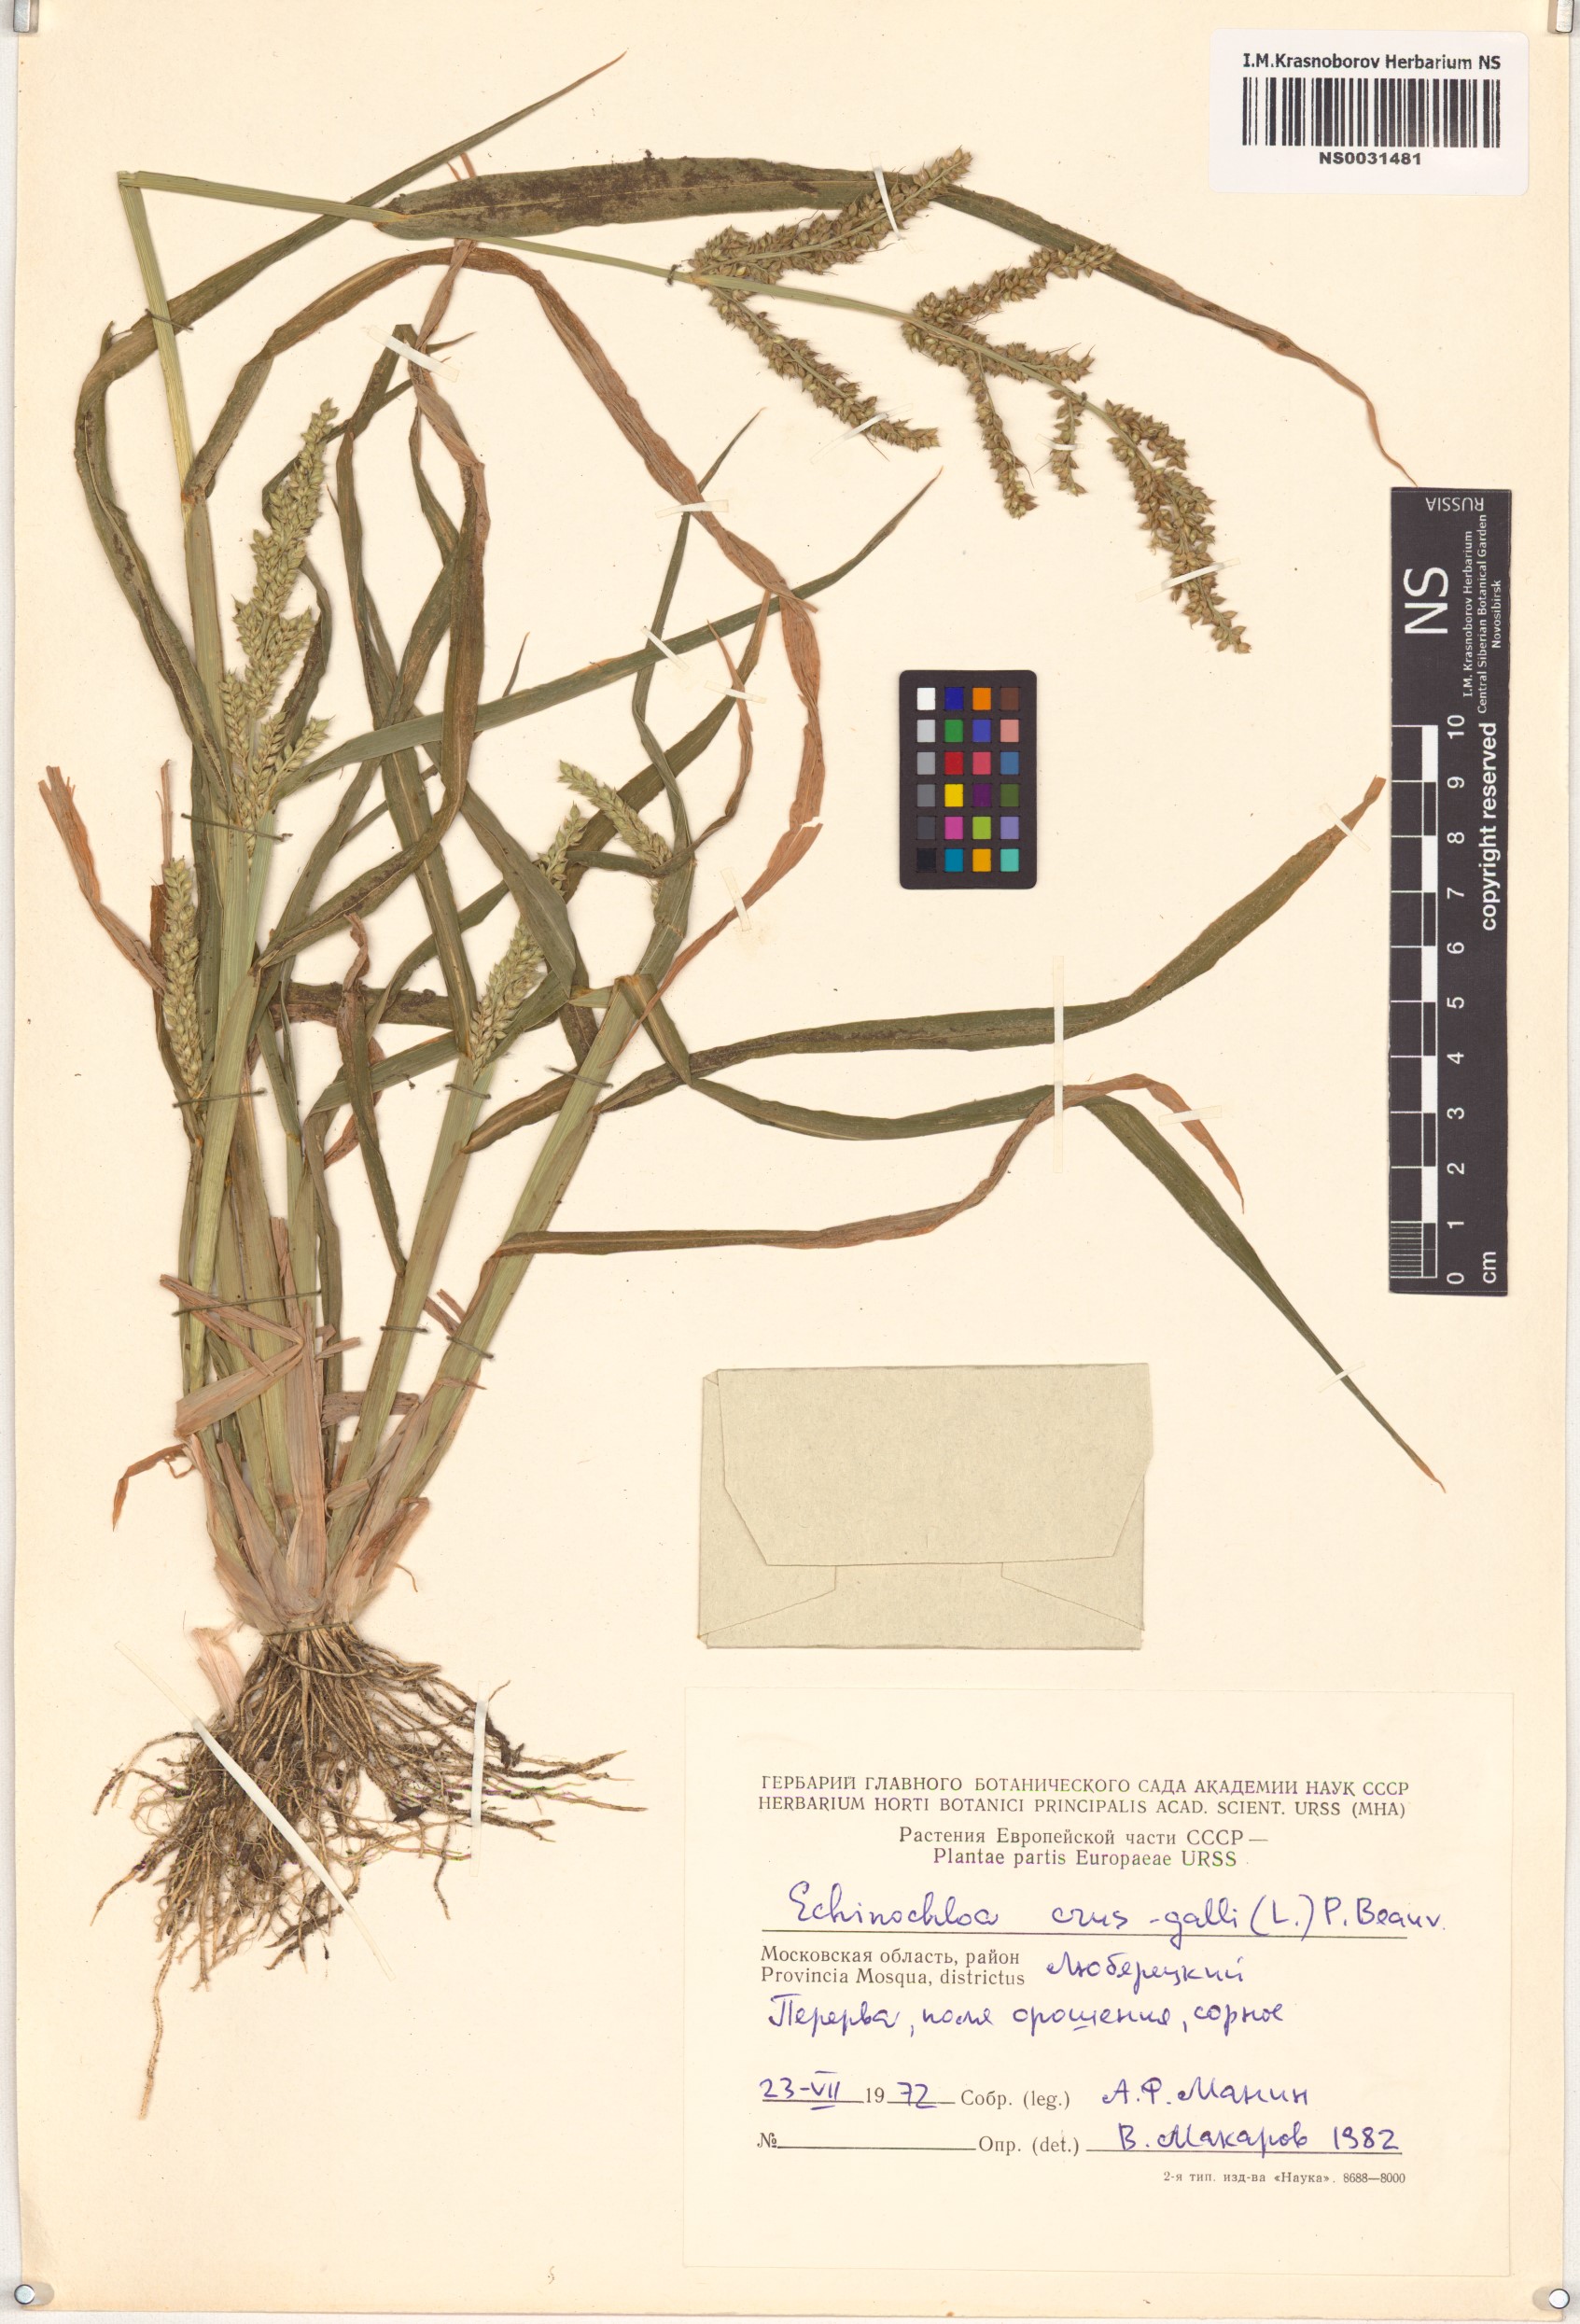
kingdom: Plantae
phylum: Tracheophyta
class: Liliopsida
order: Poales
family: Poaceae
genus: Echinochloa
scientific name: Echinochloa crus-galli
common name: Cockspur
